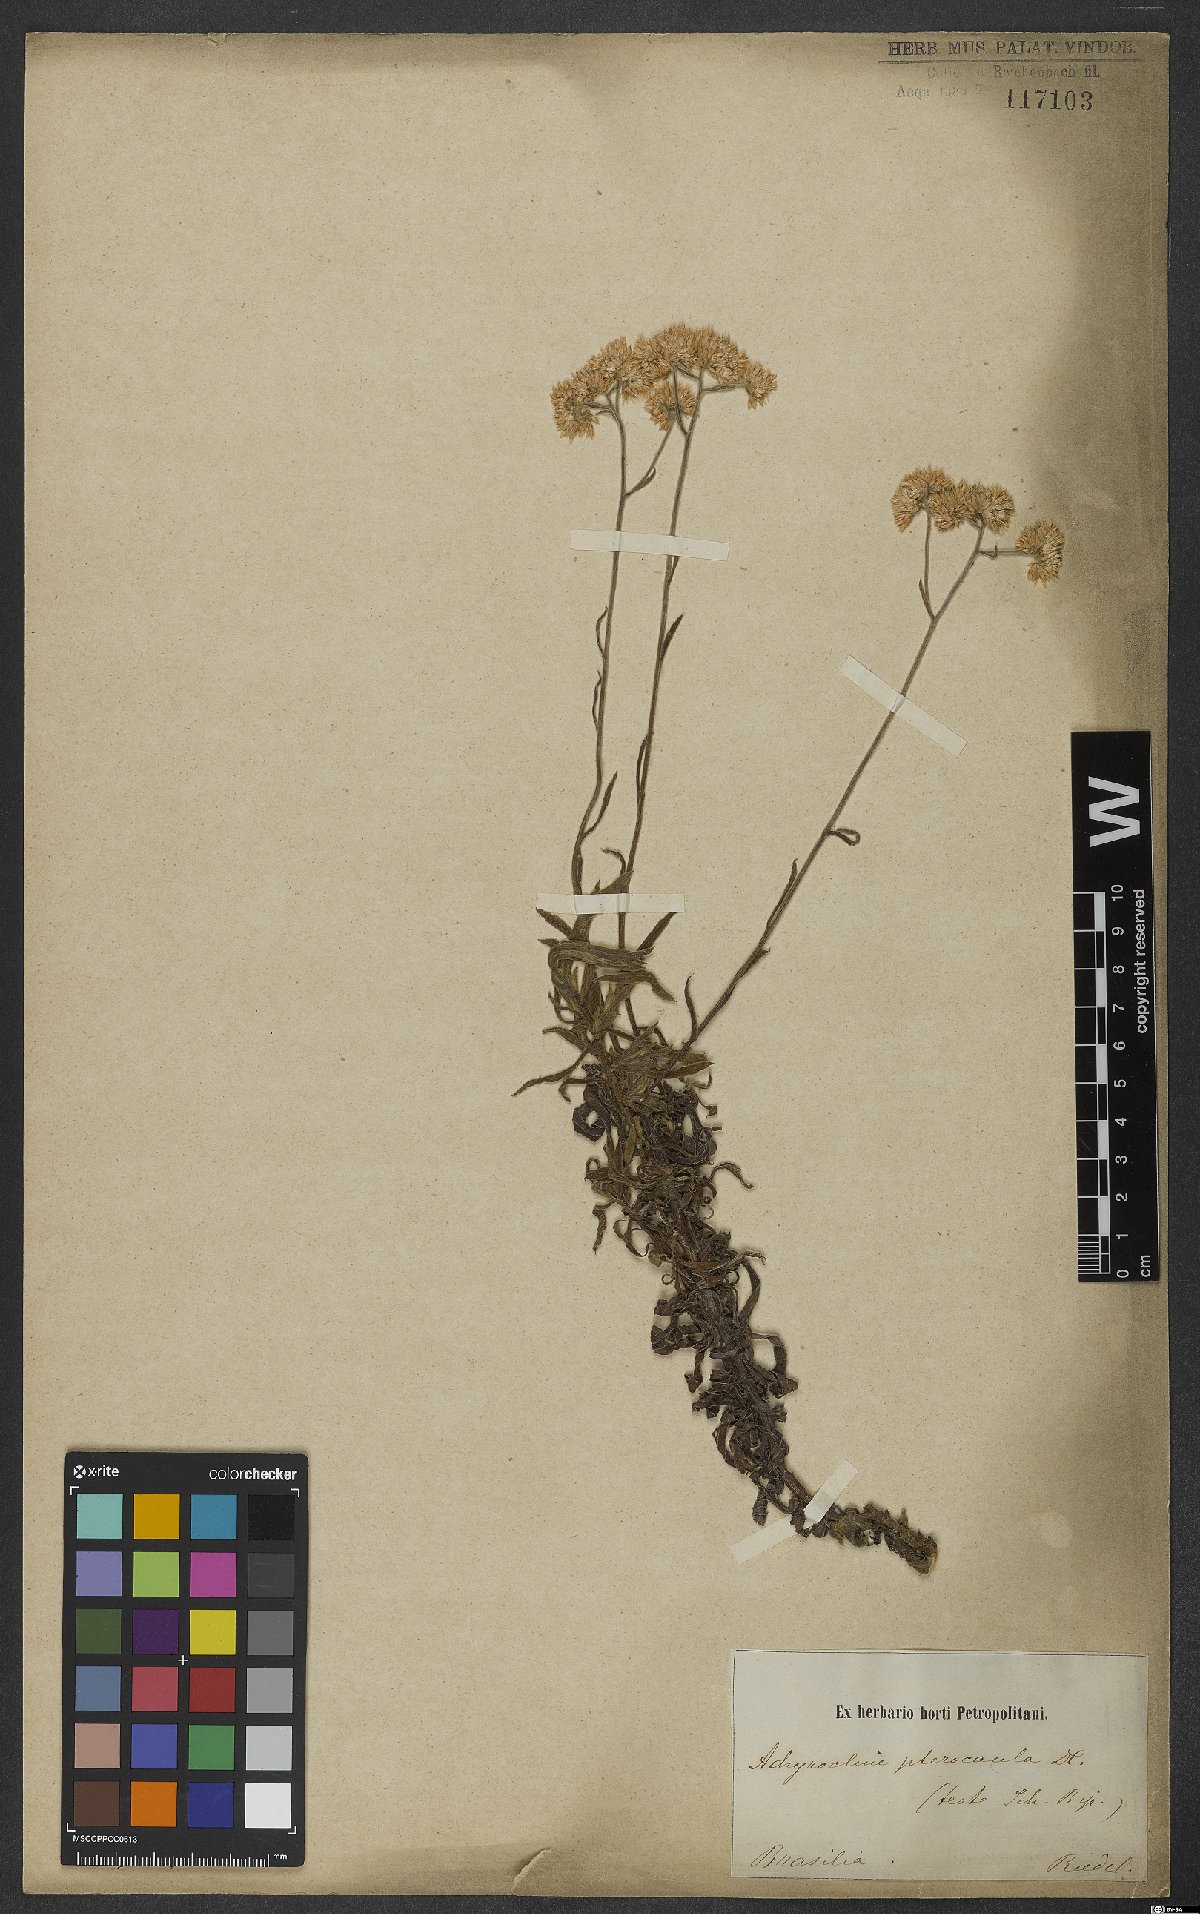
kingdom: Plantae
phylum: Tracheophyta
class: Magnoliopsida
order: Asterales
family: Asteraceae
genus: Achyrocline
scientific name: Achyrocline vauthieriana
